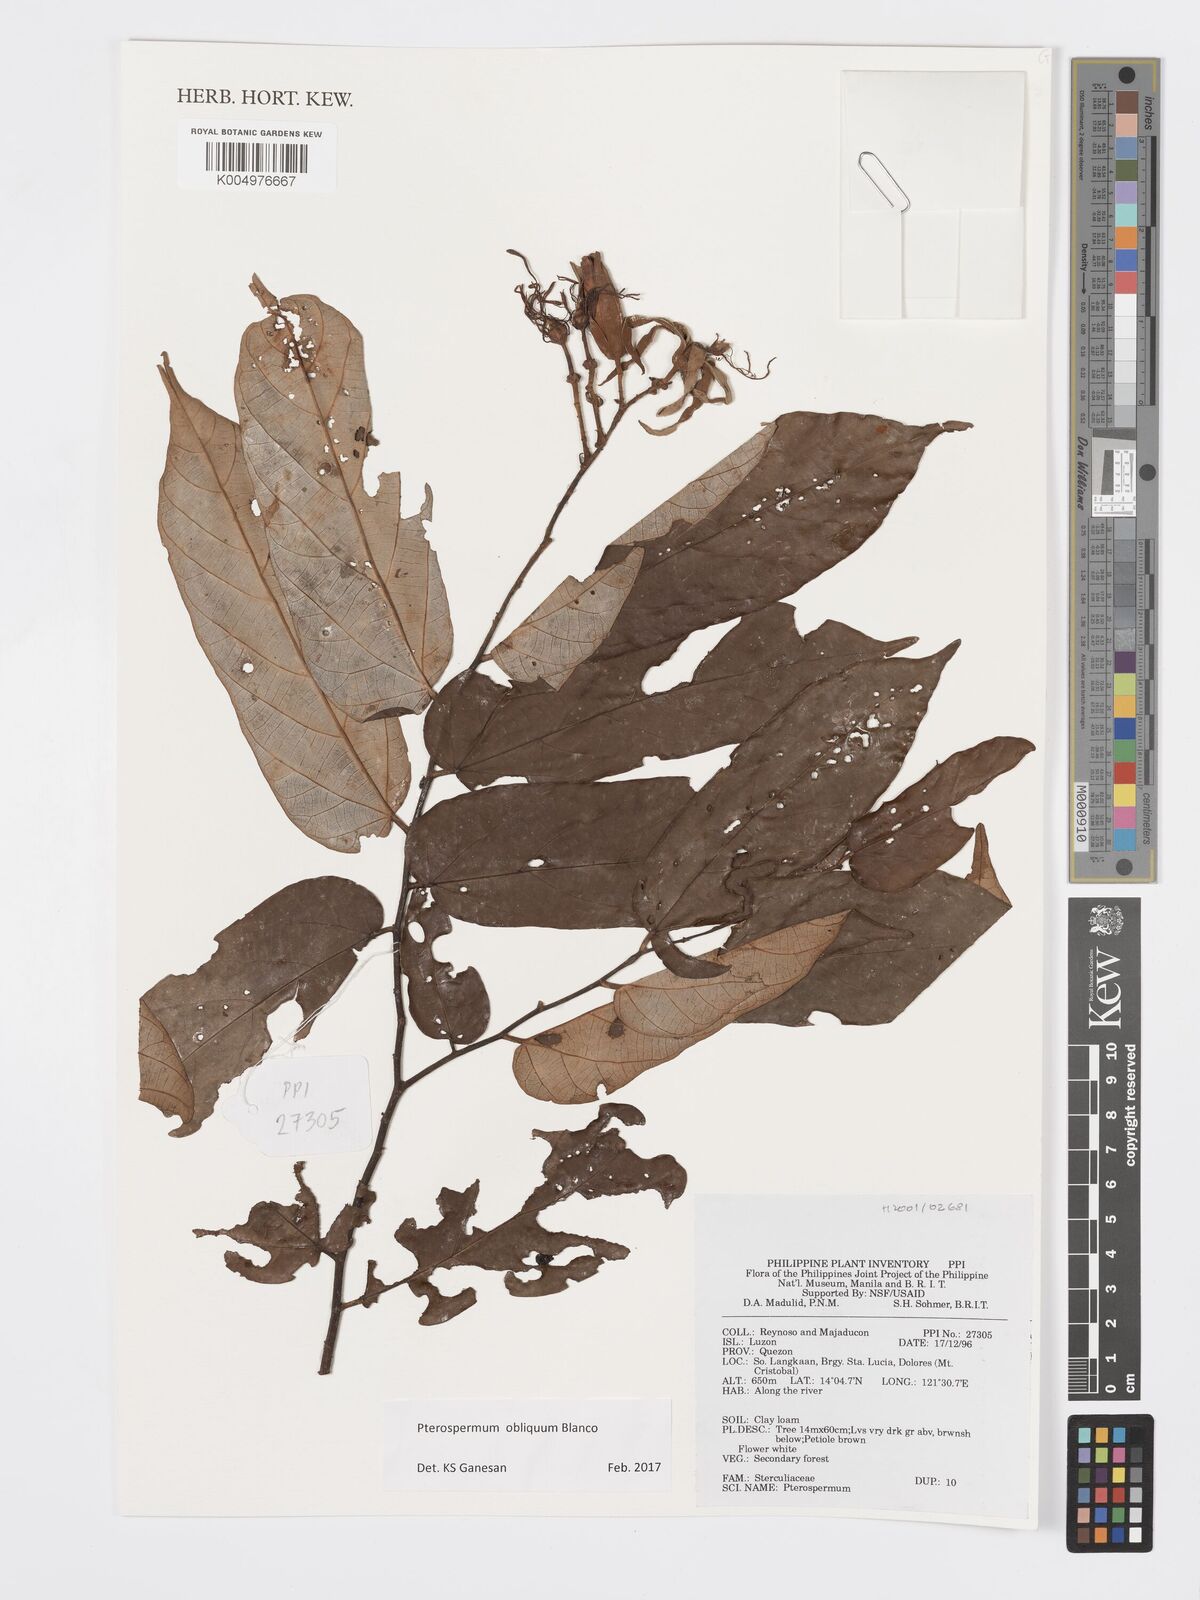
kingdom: Plantae
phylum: Tracheophyta
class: Magnoliopsida
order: Malvales
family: Malvaceae
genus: Pterospermum
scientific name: Pterospermum obliquum
